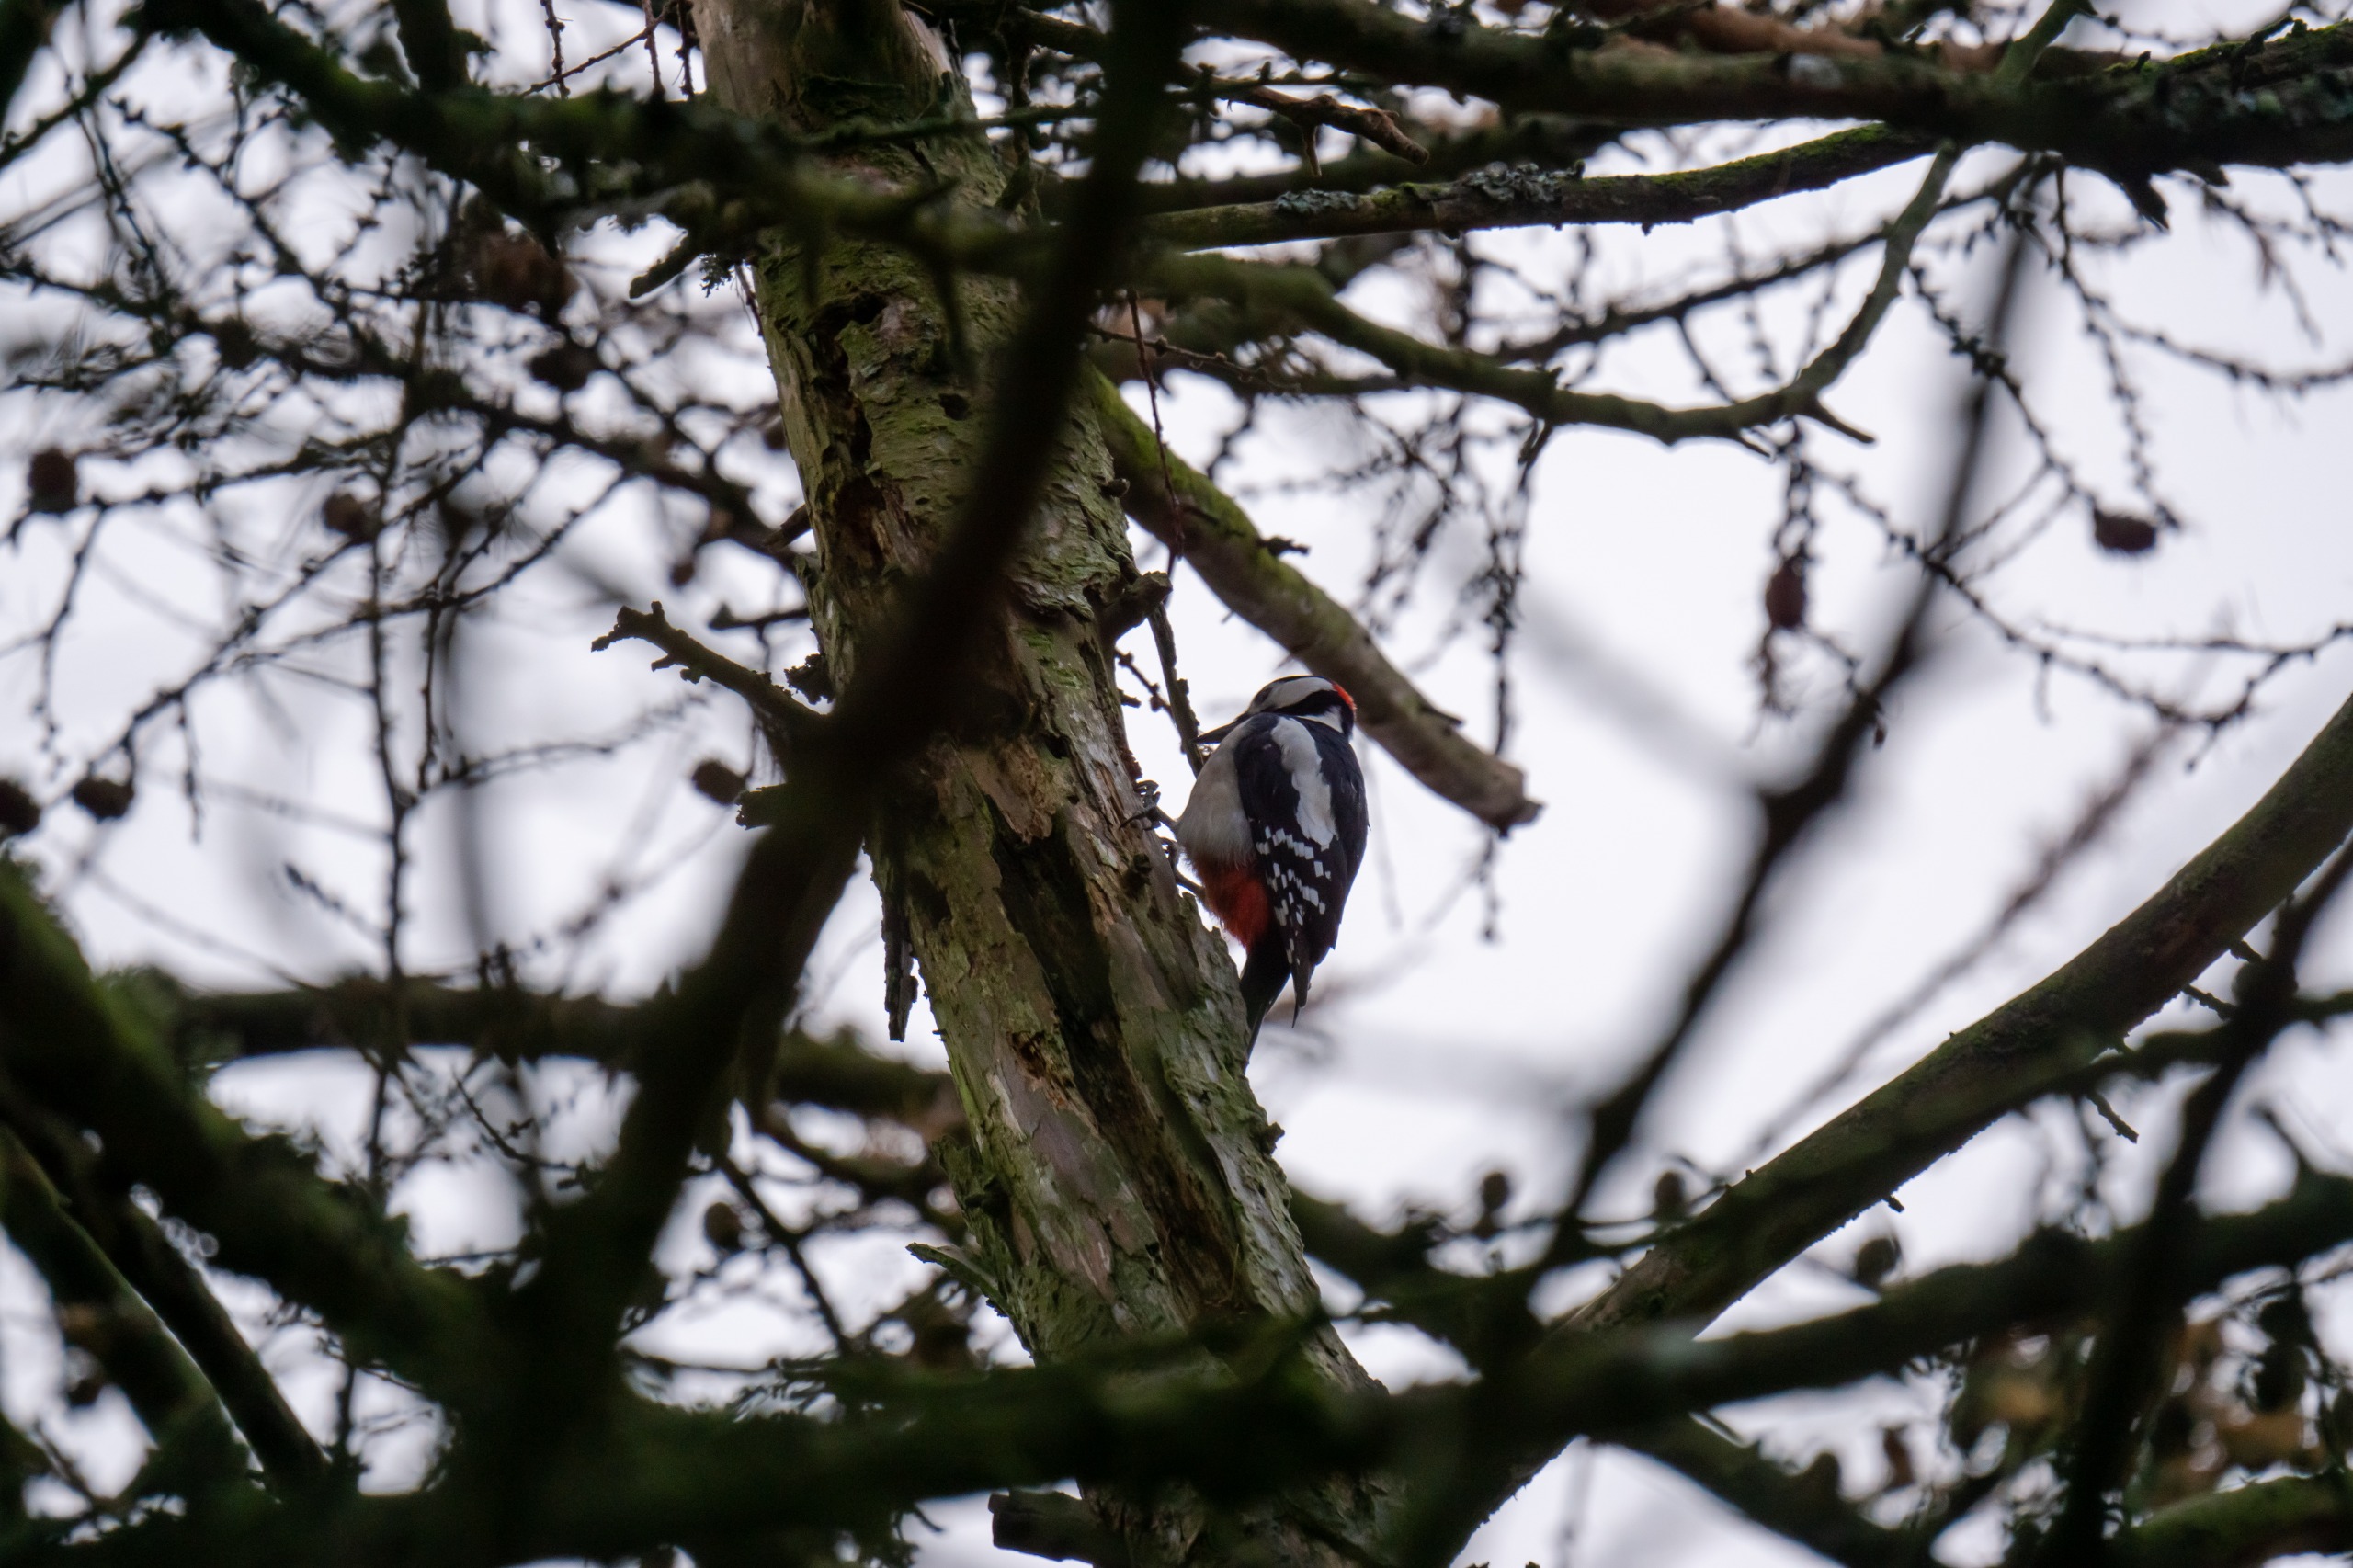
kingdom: Animalia
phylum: Chordata
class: Aves
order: Piciformes
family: Picidae
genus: Dendrocopos
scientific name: Dendrocopos major
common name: Stor flagspætte
